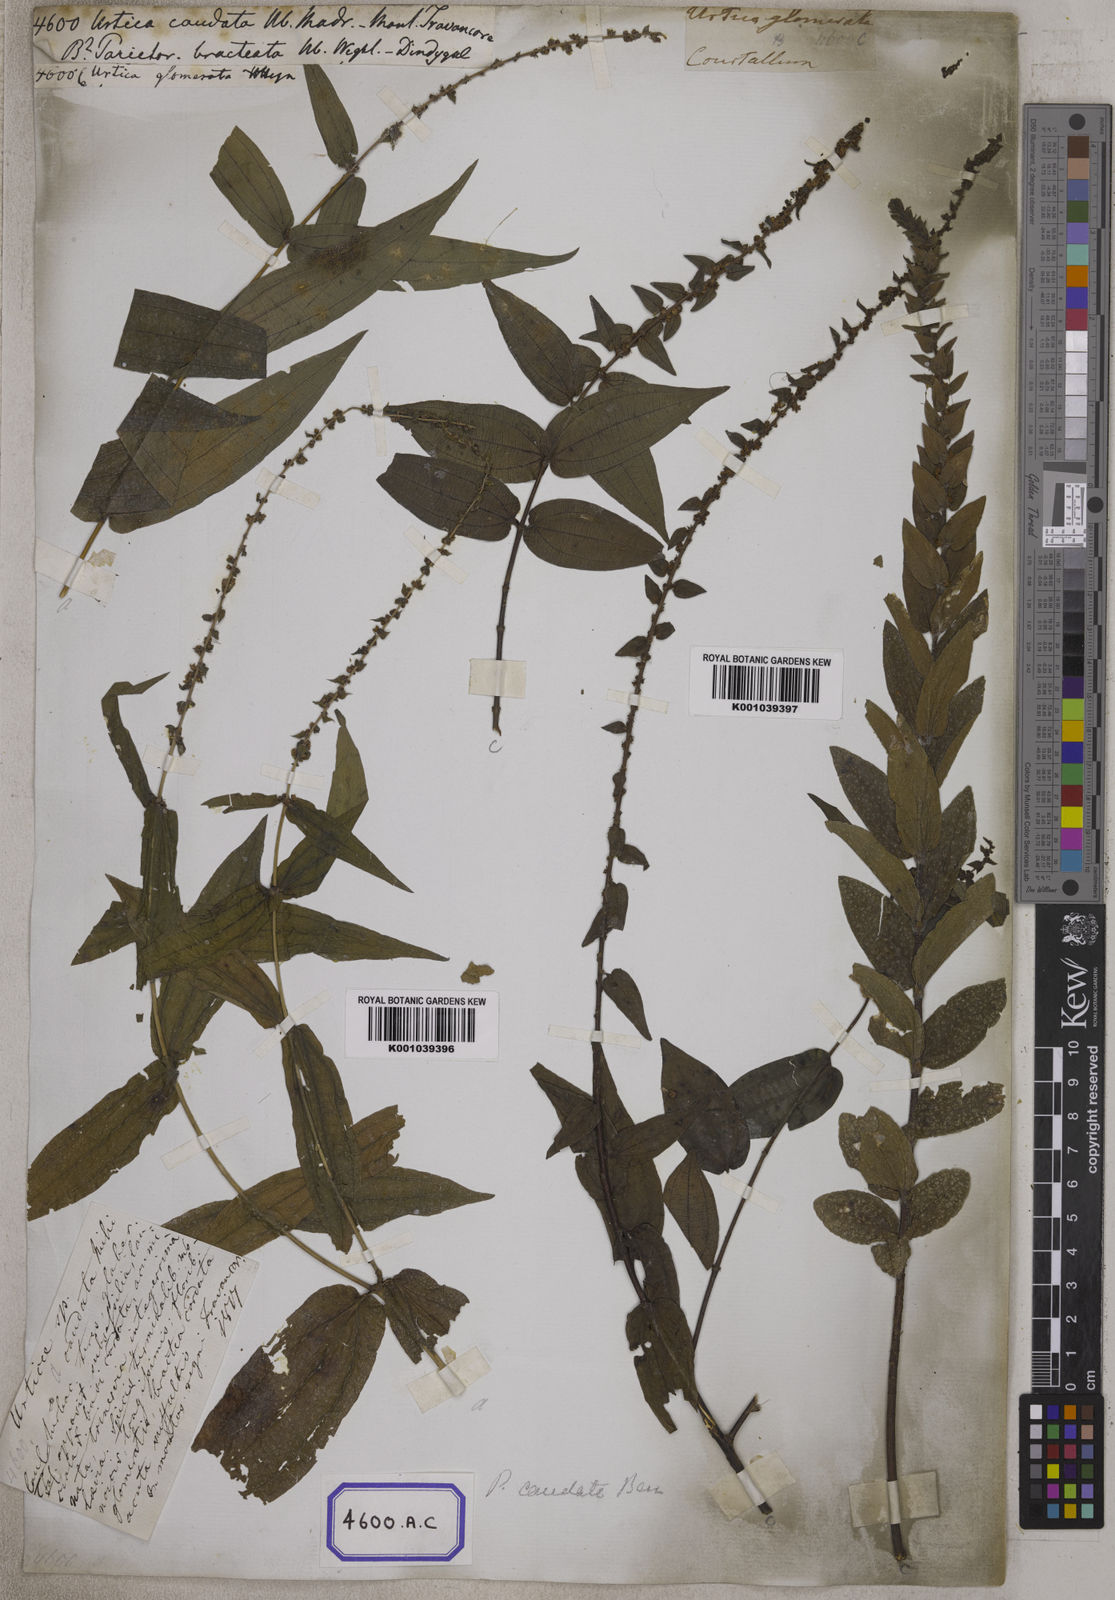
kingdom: Plantae
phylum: Tracheophyta
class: Magnoliopsida
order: Rosales
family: Urticaceae
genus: Gonostegia
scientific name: Gonostegia pentandra
